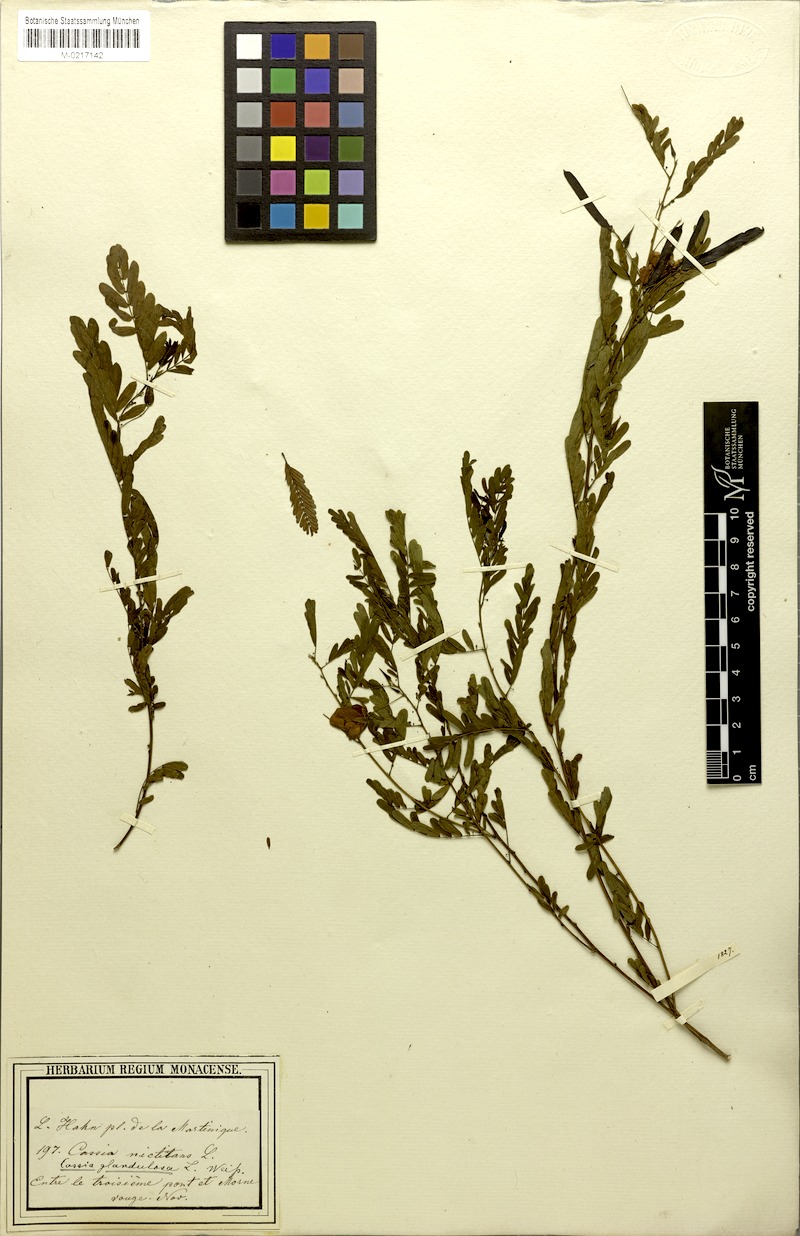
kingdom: Plantae
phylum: Tracheophyta
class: Magnoliopsida
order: Fabales
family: Fabaceae
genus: Chamaecrista
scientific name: Chamaecrista glandulosa
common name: Wild peas
